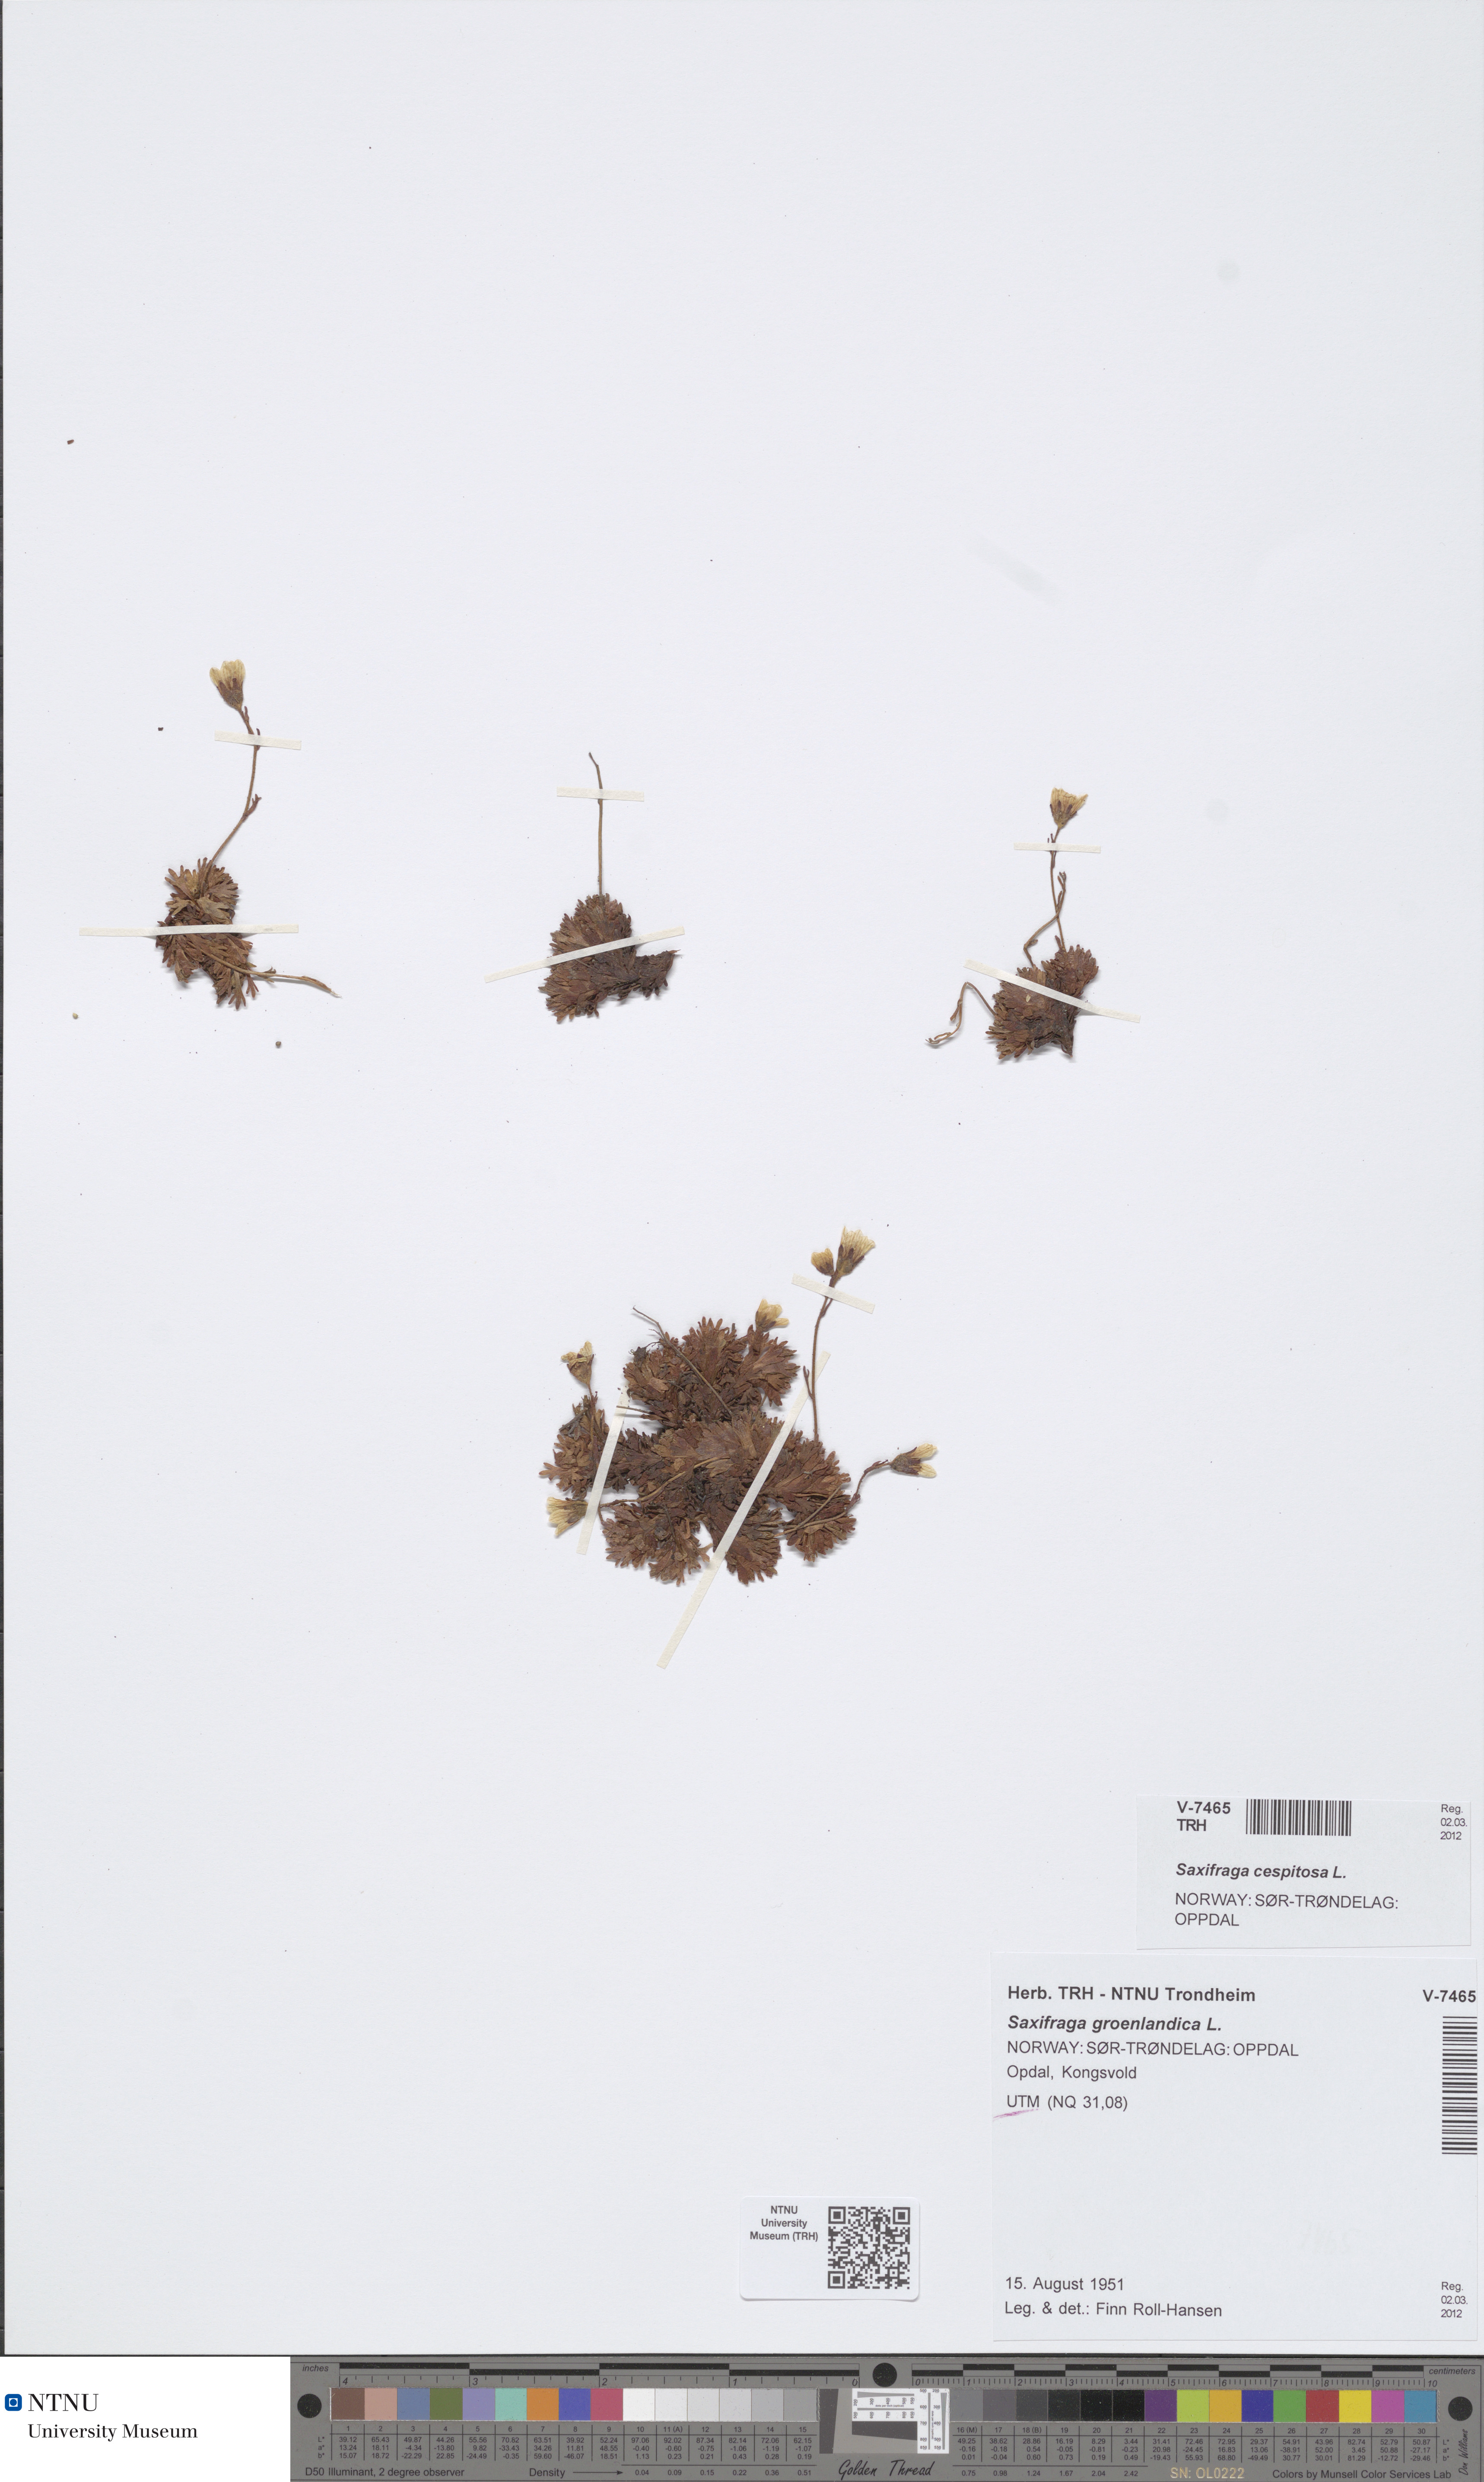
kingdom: Plantae
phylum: Tracheophyta
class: Magnoliopsida
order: Saxifragales
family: Saxifragaceae
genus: Saxifraga
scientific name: Saxifraga cespitosa
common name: Tufted saxifrage
